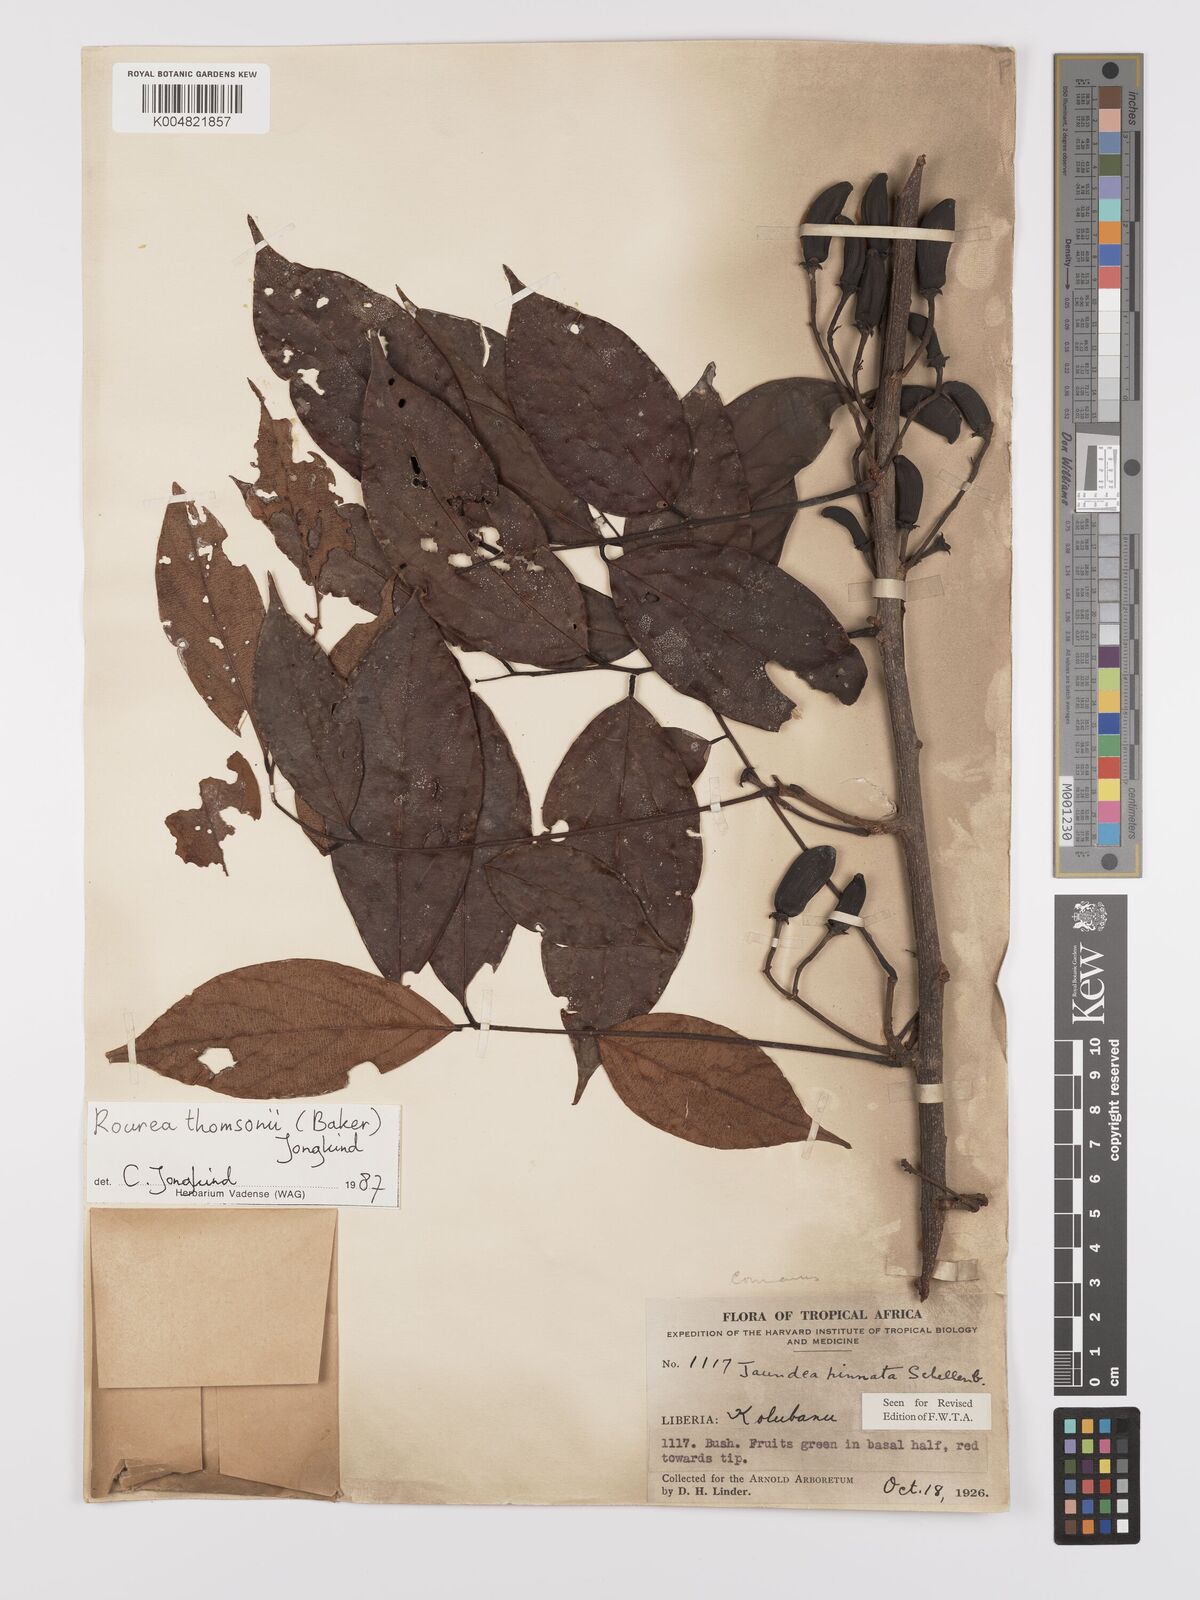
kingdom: Plantae
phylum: Tracheophyta
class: Magnoliopsida
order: Oxalidales
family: Connaraceae
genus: Rourea
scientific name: Rourea pinnata
